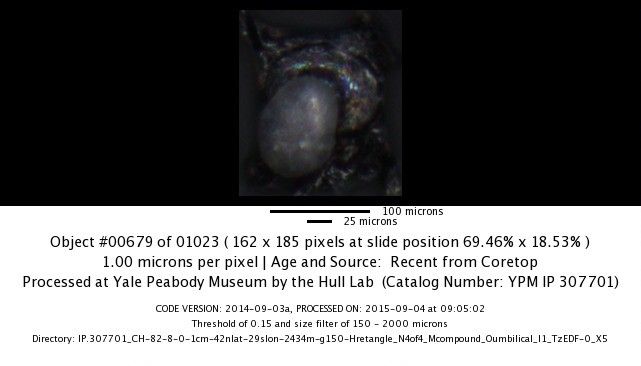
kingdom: Chromista
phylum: Foraminifera
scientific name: Foraminifera
